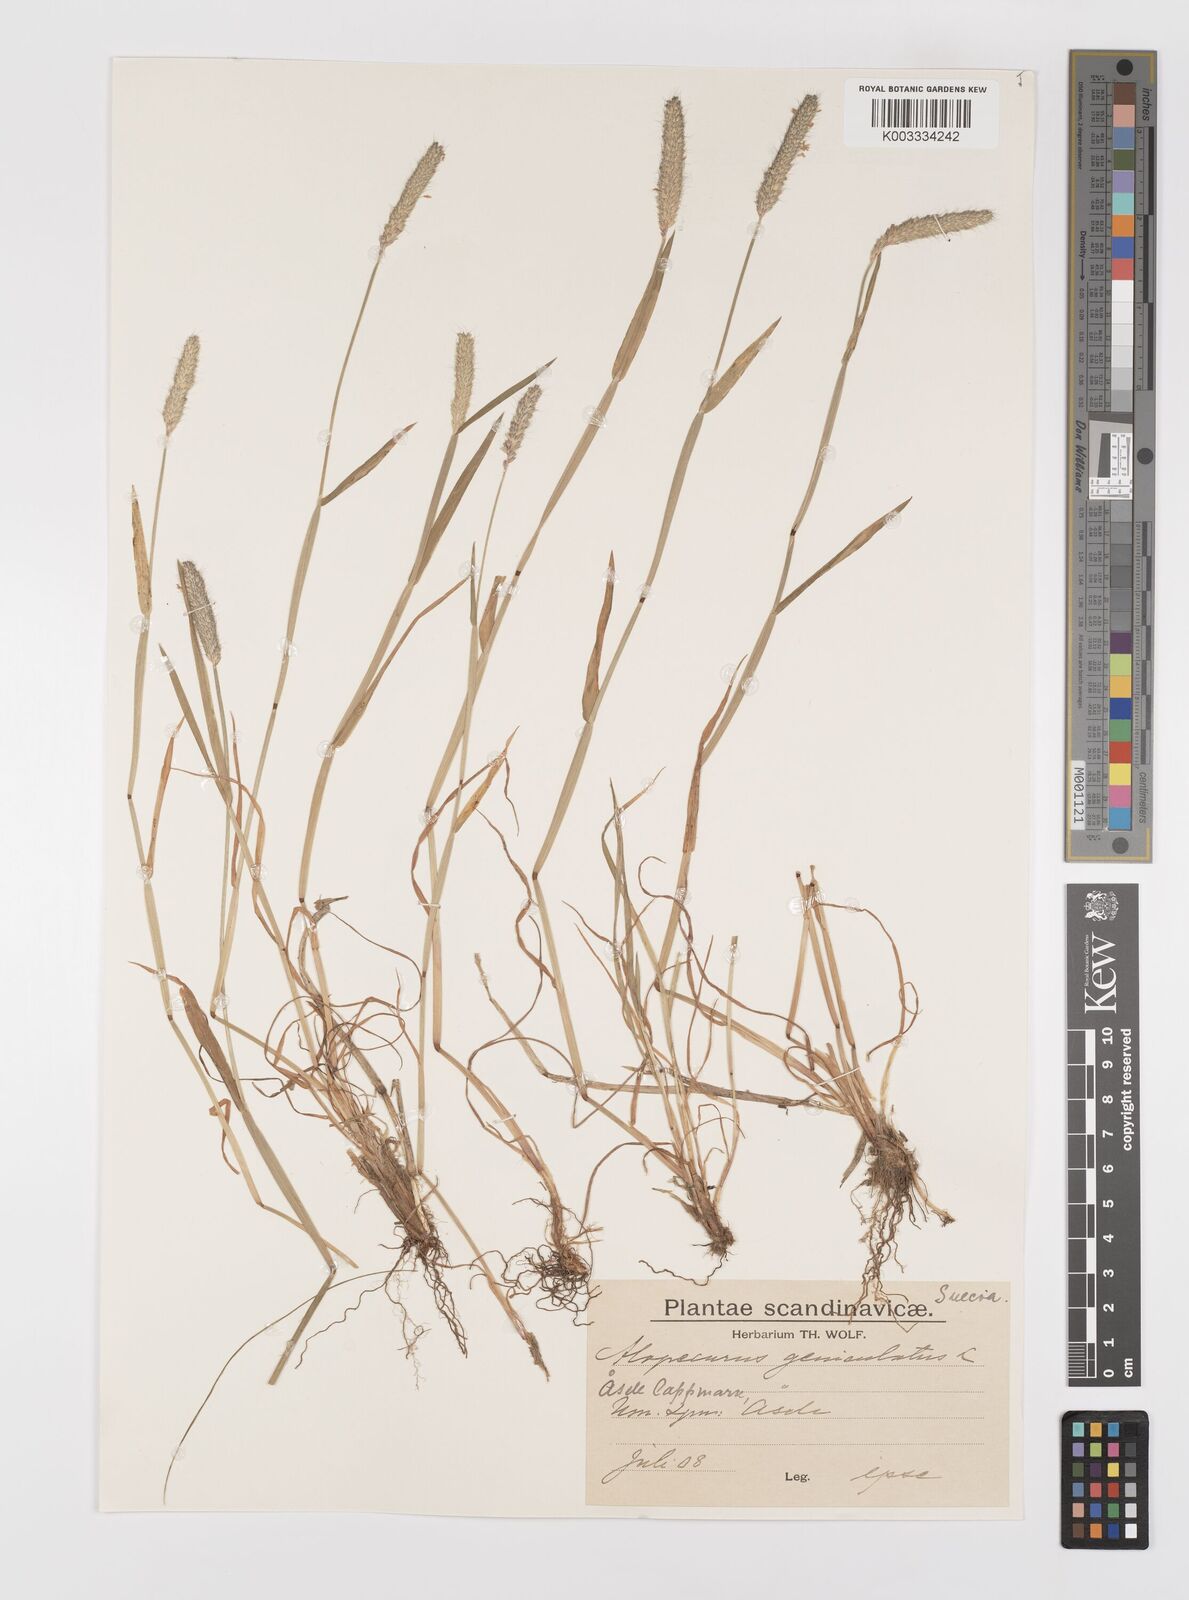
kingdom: Plantae
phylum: Tracheophyta
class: Liliopsida
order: Poales
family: Poaceae
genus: Alopecurus
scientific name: Alopecurus geniculatus
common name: Water foxtail
